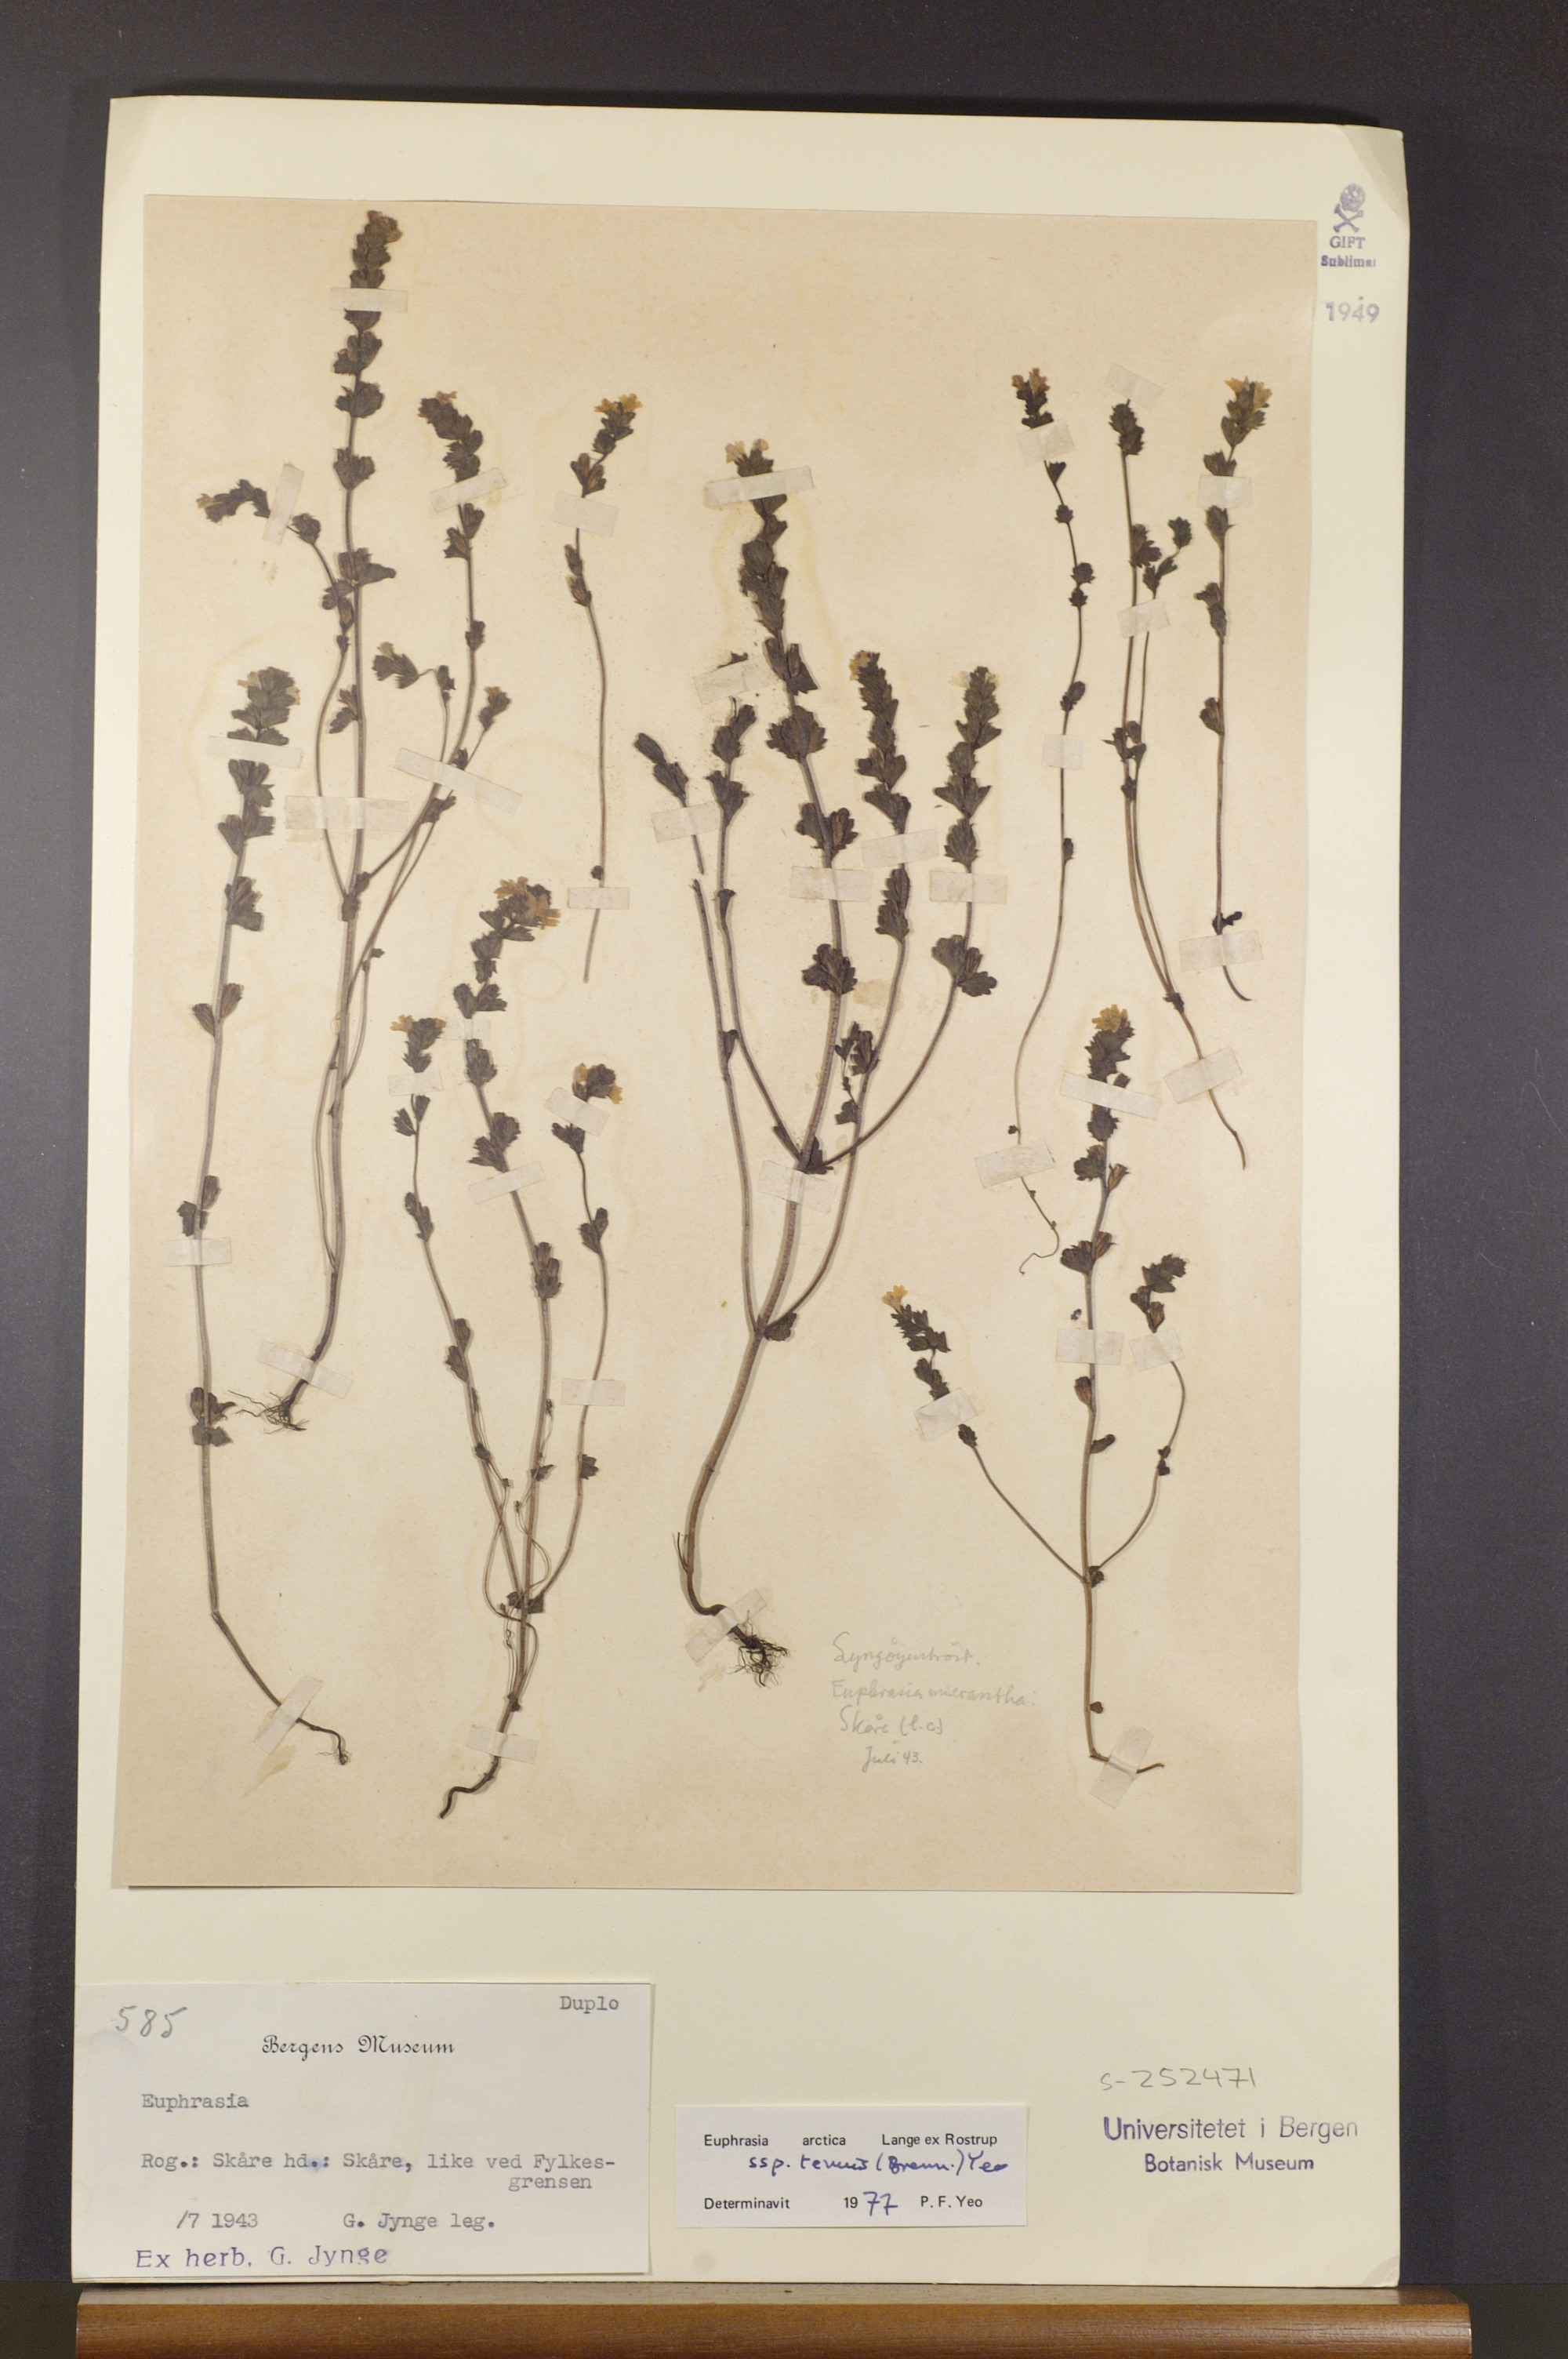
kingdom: Plantae
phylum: Tracheophyta
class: Magnoliopsida
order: Lamiales
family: Orobanchaceae
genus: Euphrasia
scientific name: Euphrasia vernalis
